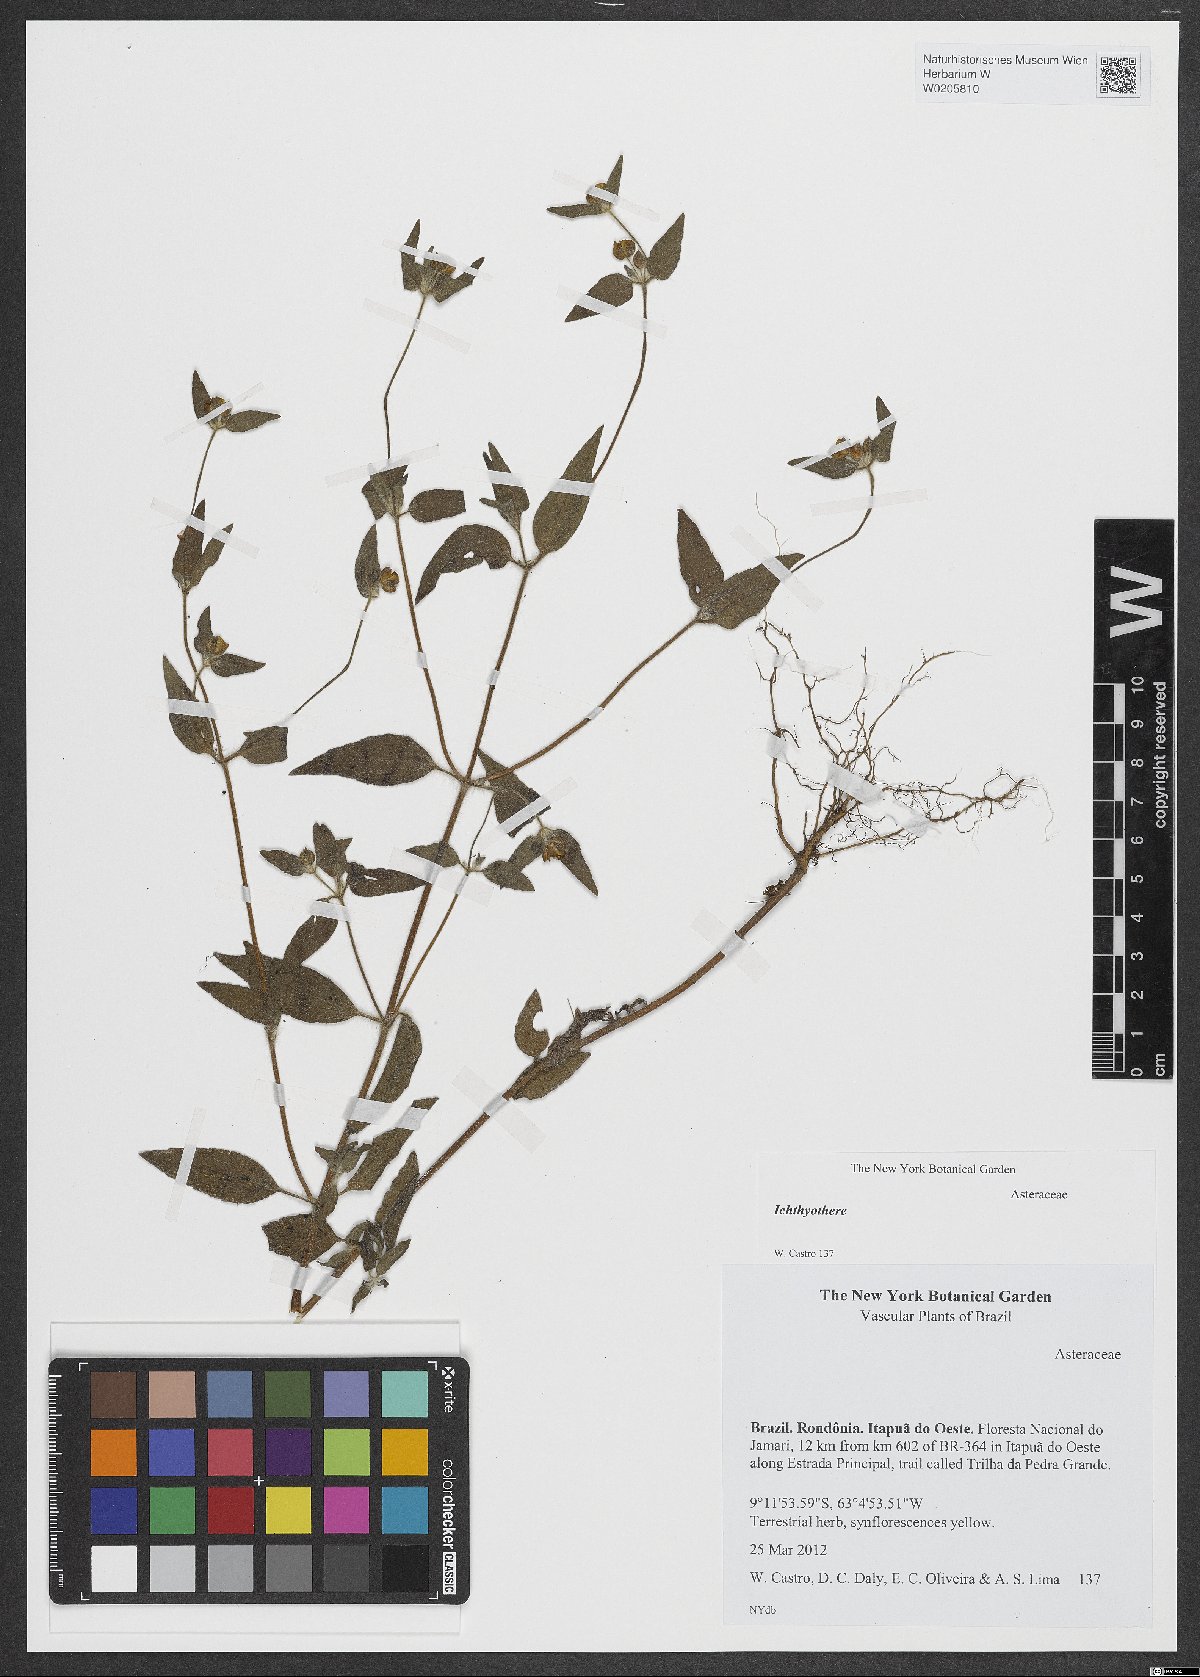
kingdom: Plantae
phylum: Tracheophyta
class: Magnoliopsida
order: Asterales
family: Asteraceae
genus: Ichthyothere
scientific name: Ichthyothere
